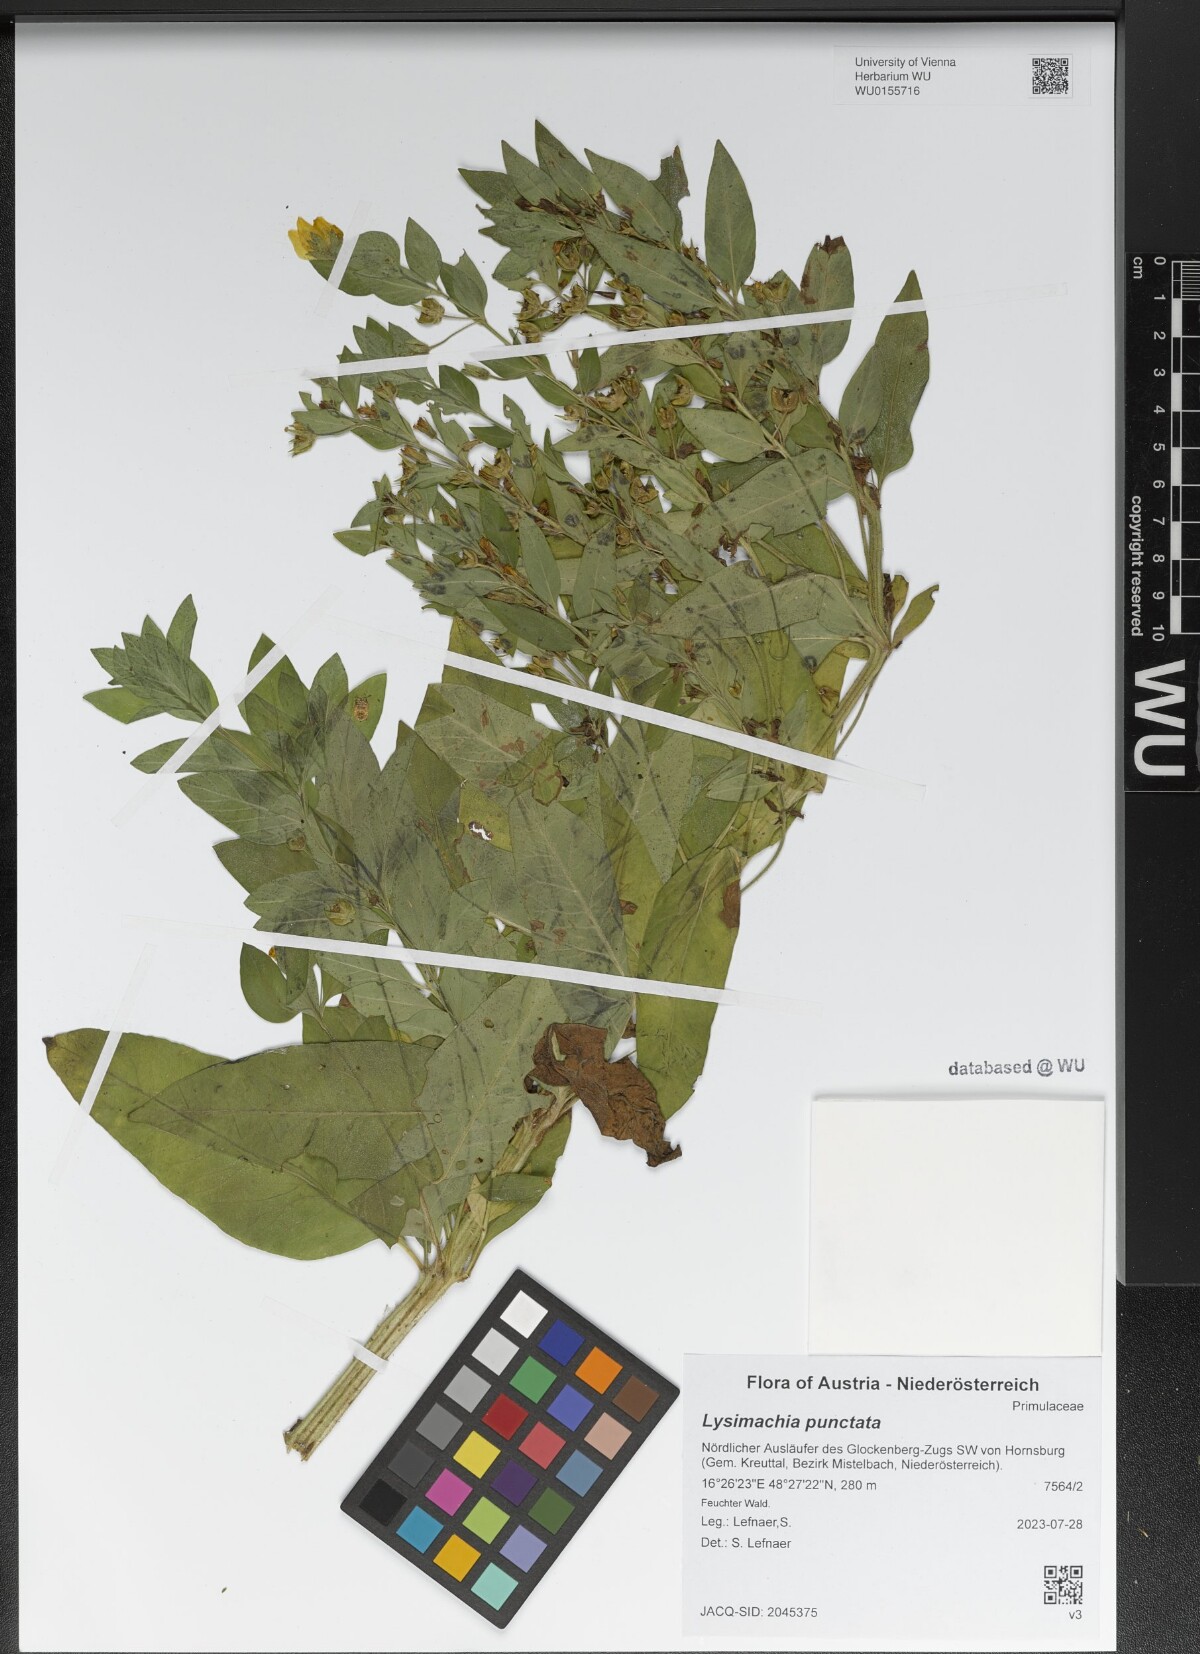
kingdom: Plantae
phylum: Tracheophyta
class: Magnoliopsida
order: Ericales
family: Primulaceae
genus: Lysimachia
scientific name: Lysimachia punctata
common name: Dotted loosestrife
